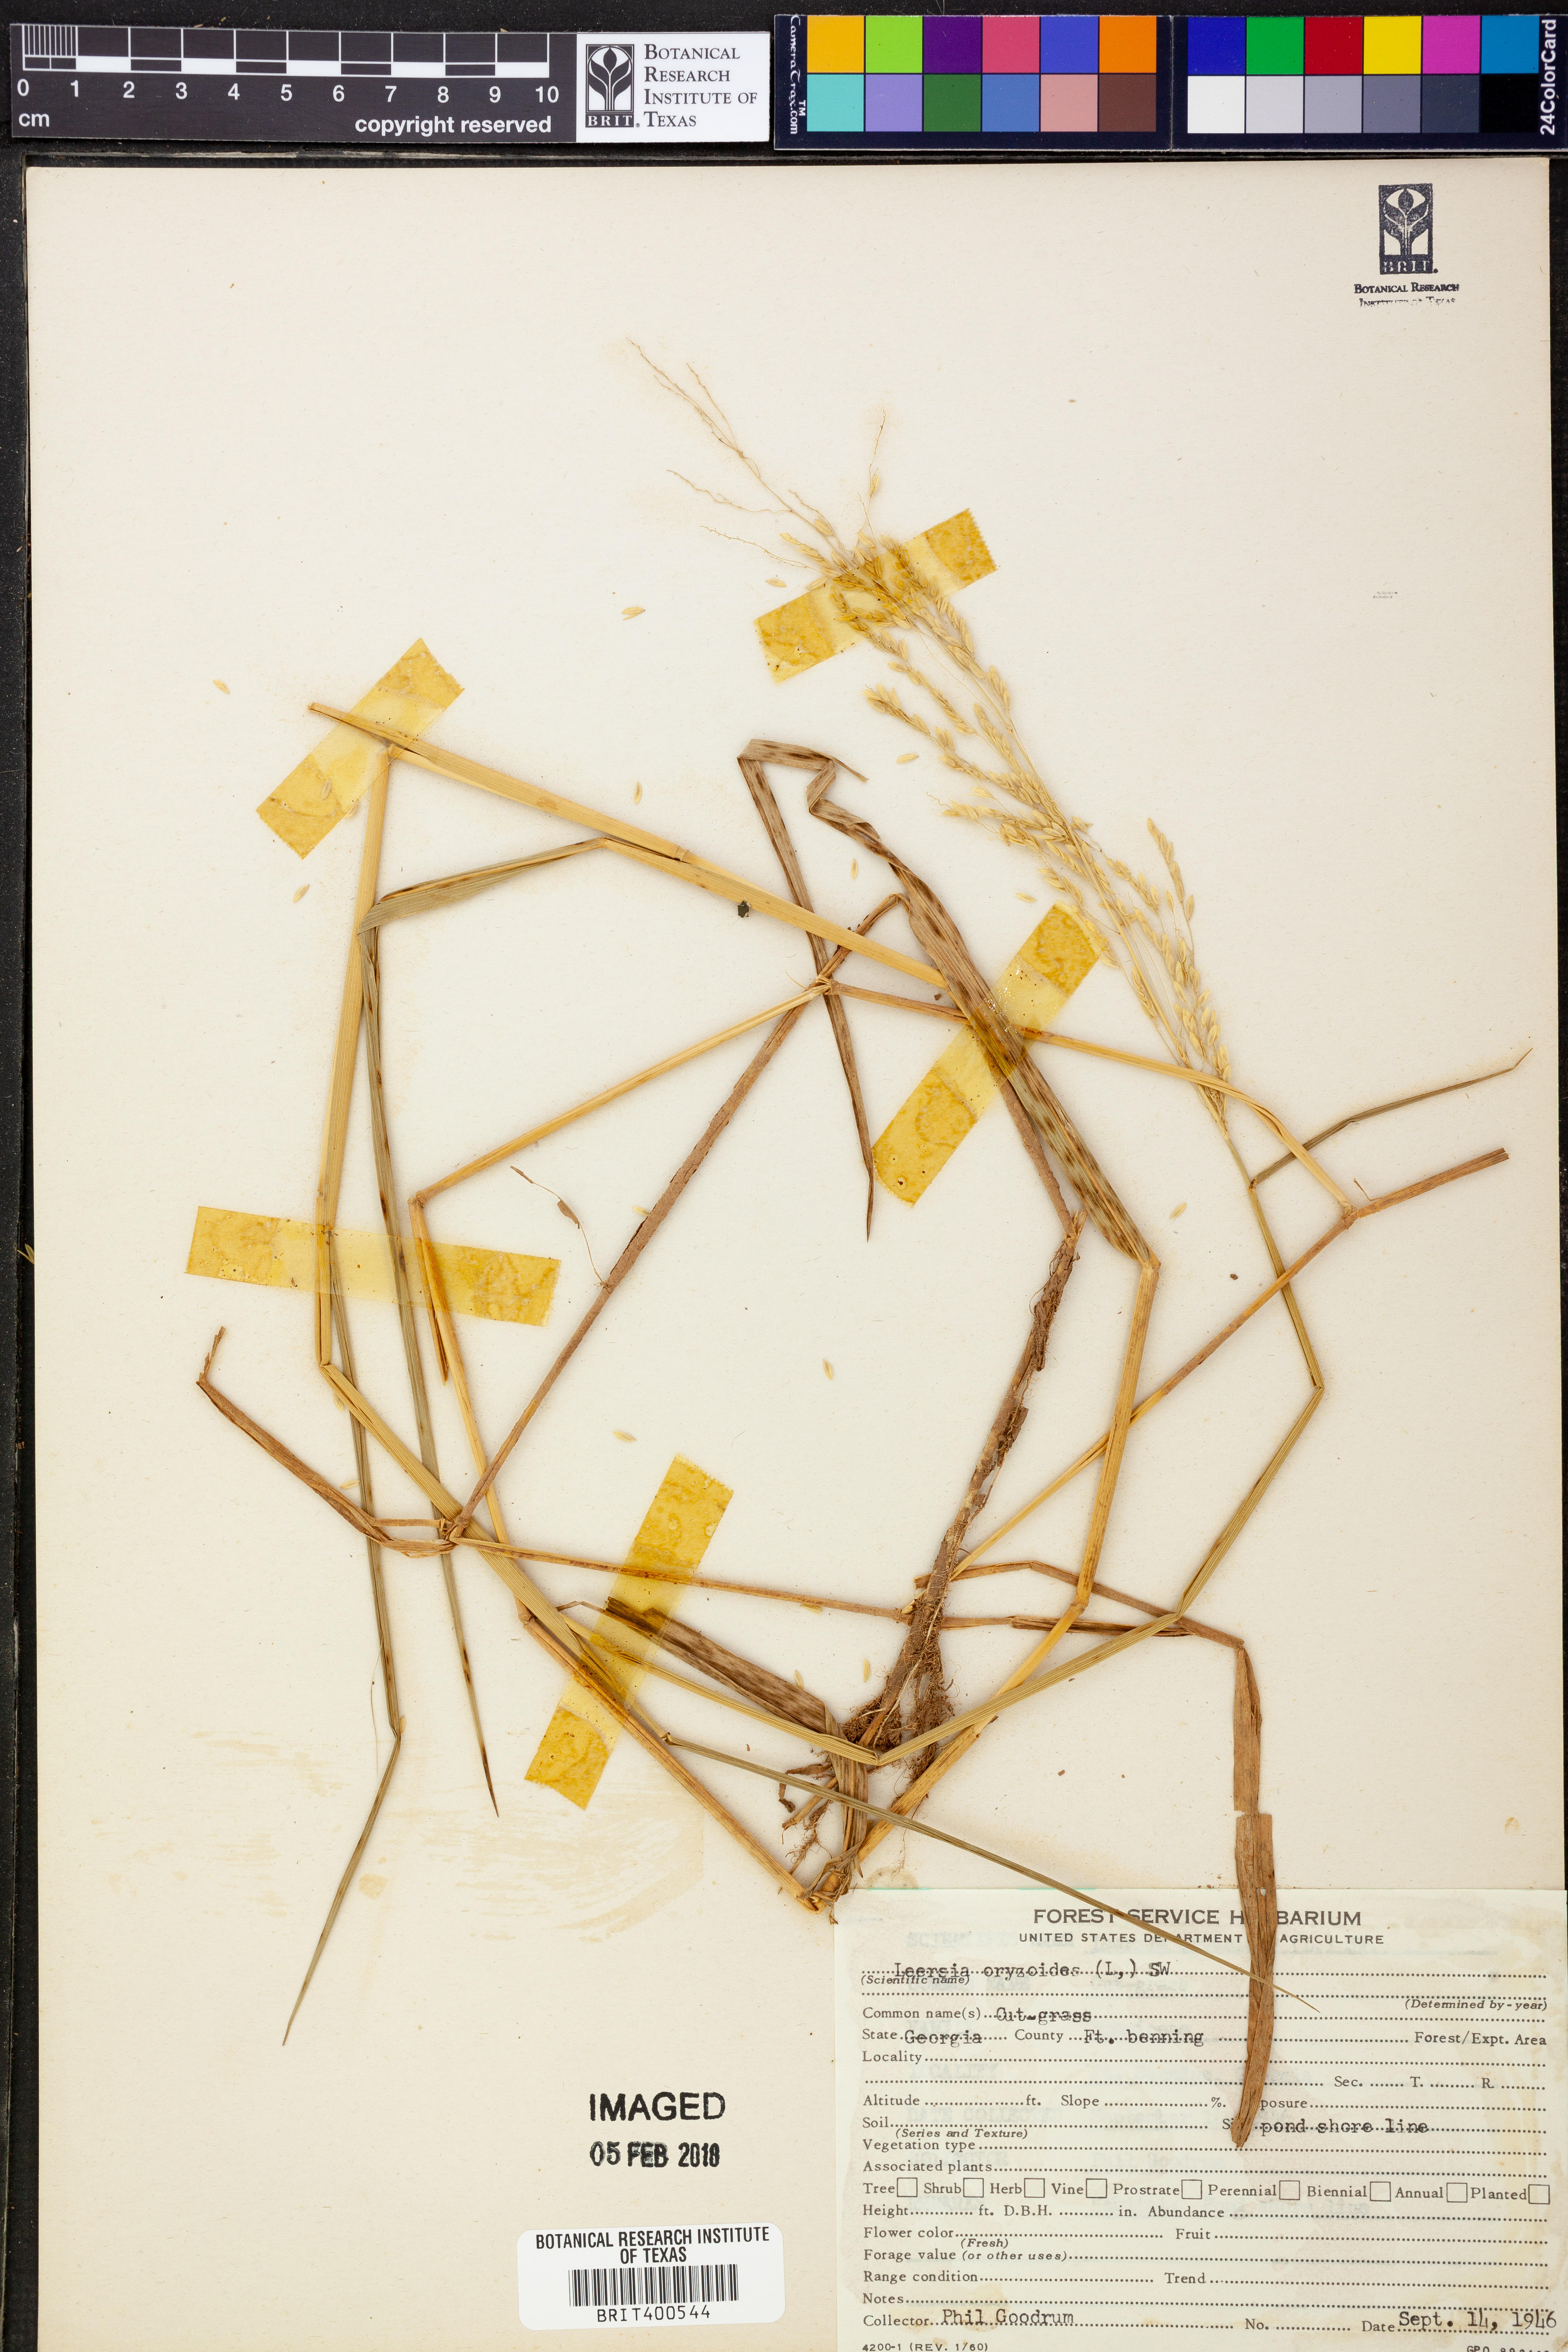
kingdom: Plantae
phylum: Tracheophyta
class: Liliopsida
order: Poales
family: Poaceae
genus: Leersia
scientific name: Leersia oryzoides
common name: Cut-grass
